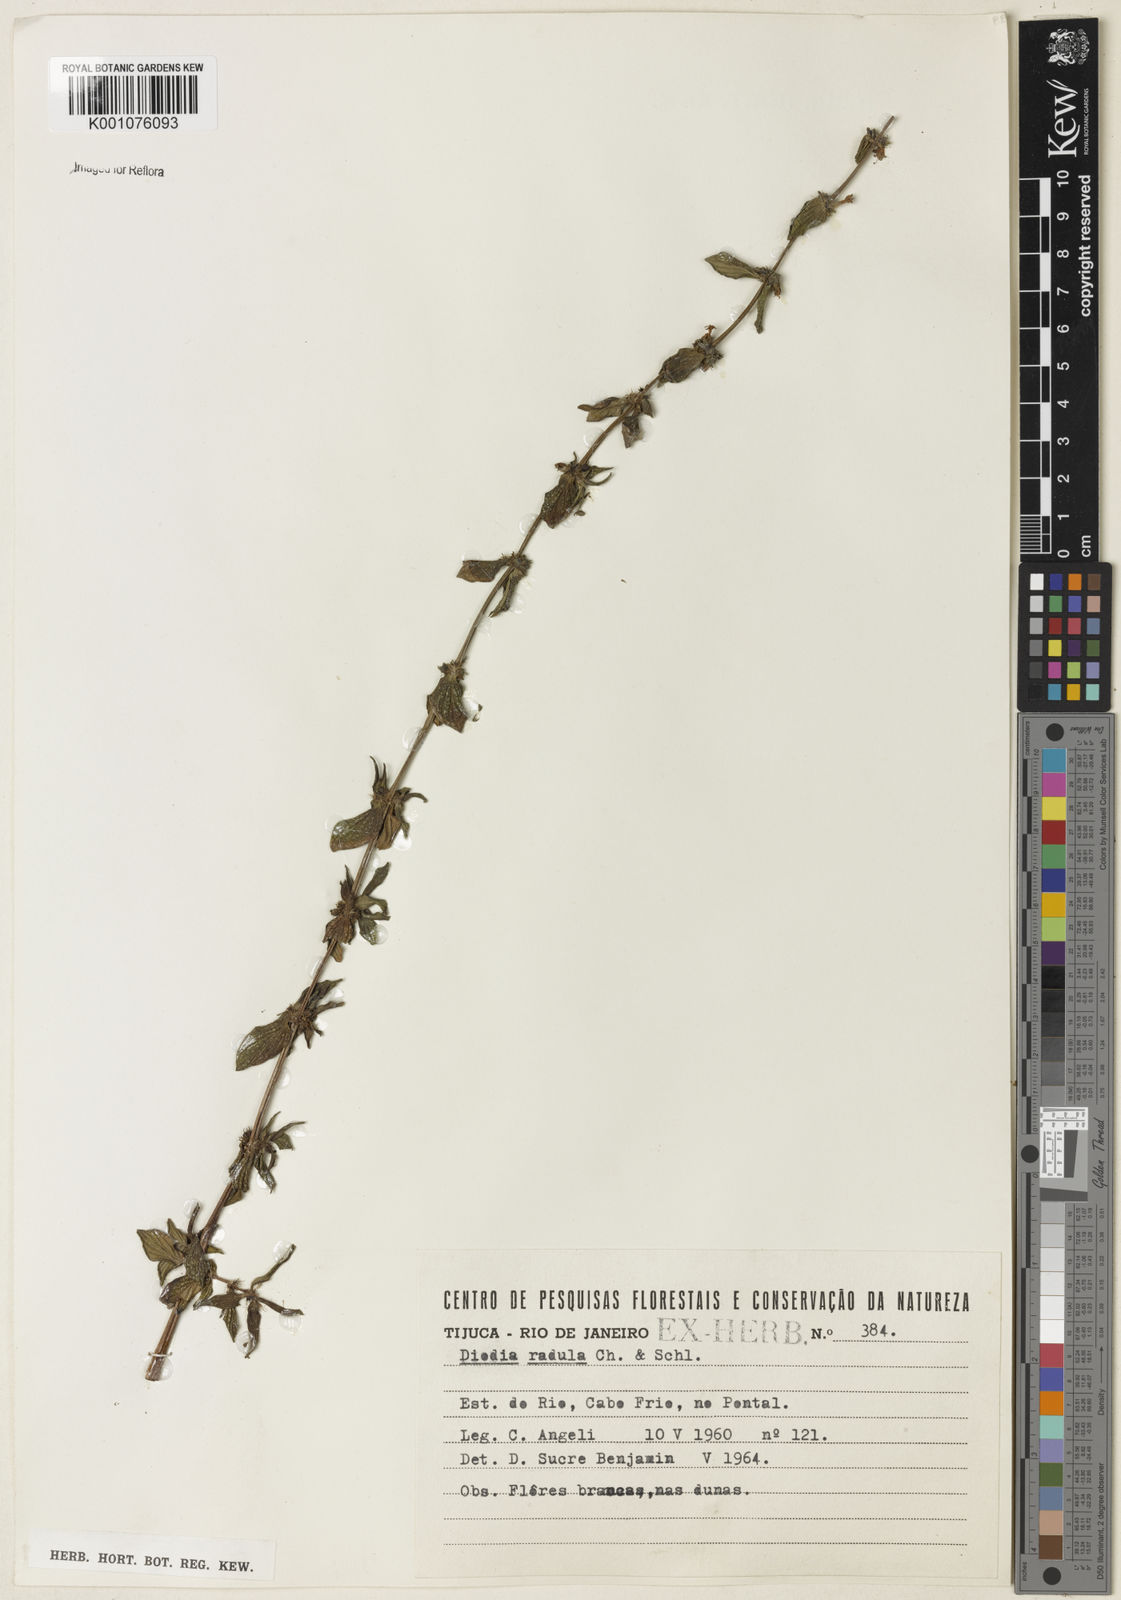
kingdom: Plantae
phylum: Tracheophyta
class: Magnoliopsida
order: Gentianales
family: Rubiaceae
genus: Hexasepalum
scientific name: Hexasepalum radulum
